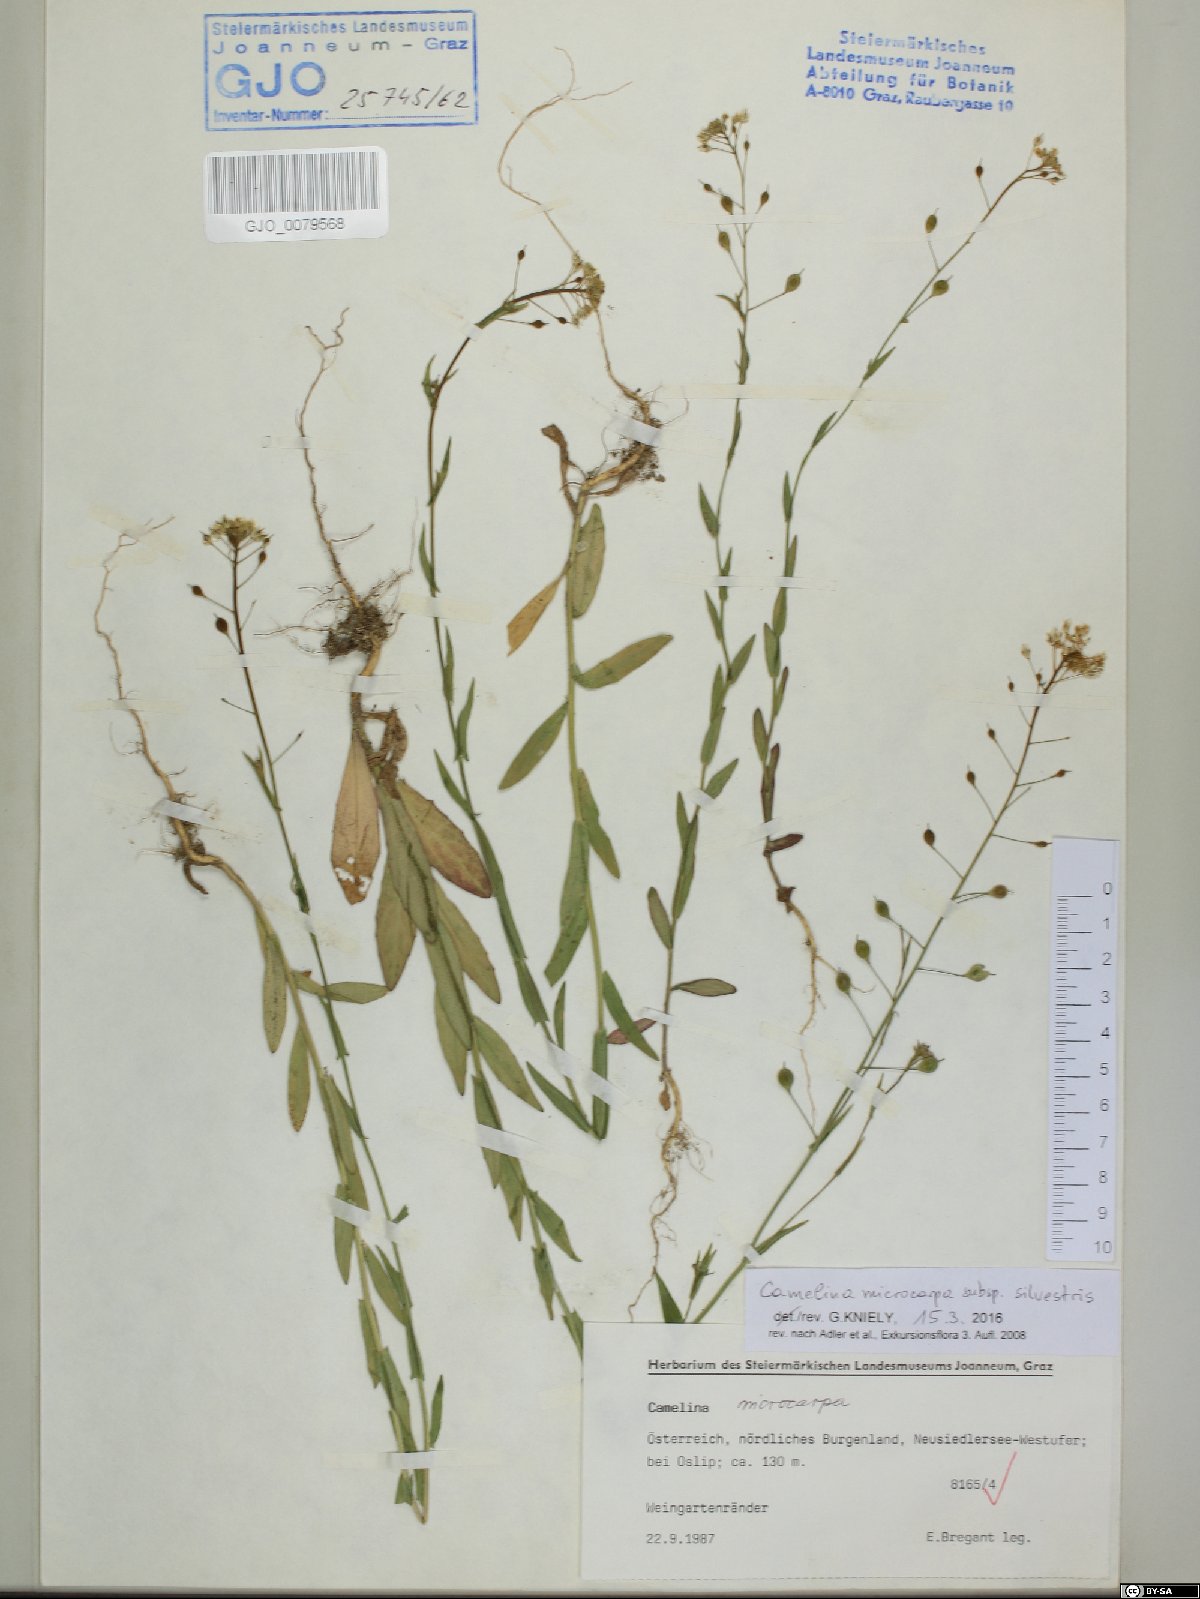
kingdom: Plantae
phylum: Tracheophyta
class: Magnoliopsida
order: Brassicales
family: Brassicaceae
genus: Camelina
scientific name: Camelina microcarpa
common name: Lesser gold-of-pleasure
